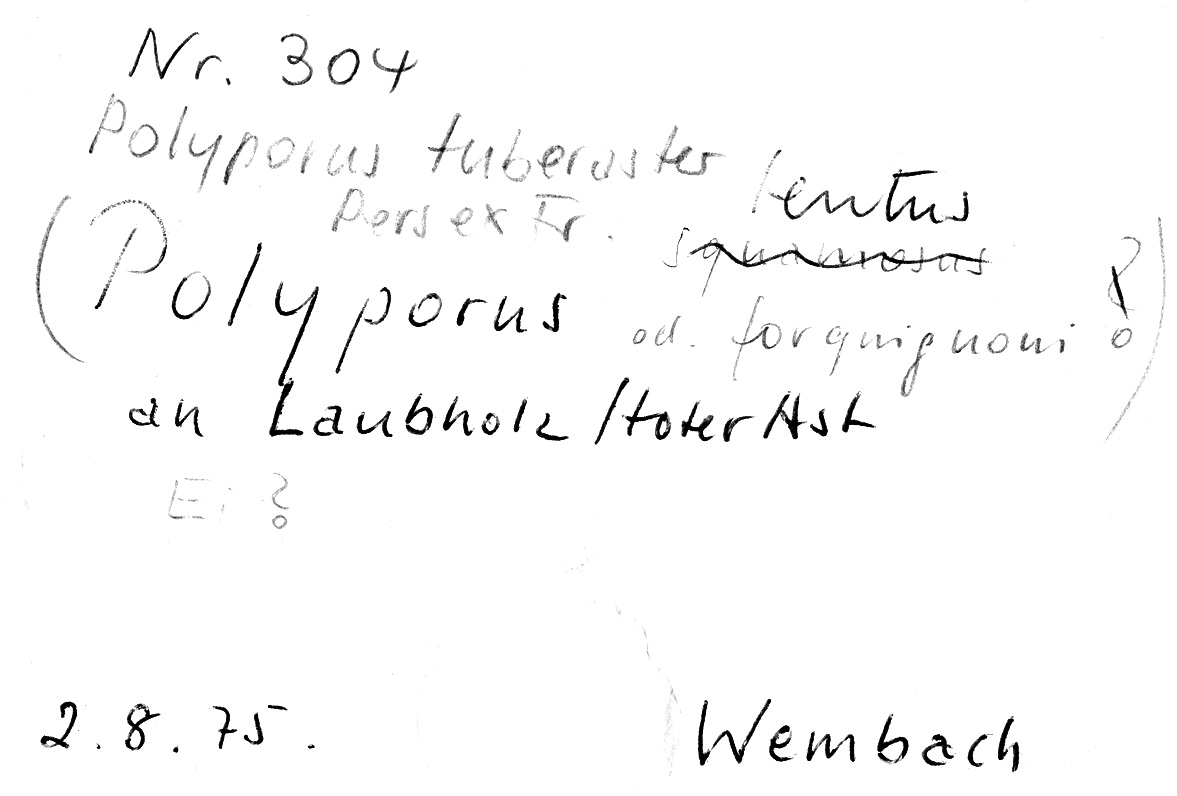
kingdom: Fungi
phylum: Basidiomycota
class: Agaricomycetes
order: Polyporales
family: Polyporaceae
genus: Polyporus
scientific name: Polyporus tuberaster
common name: Tuberous polypore
